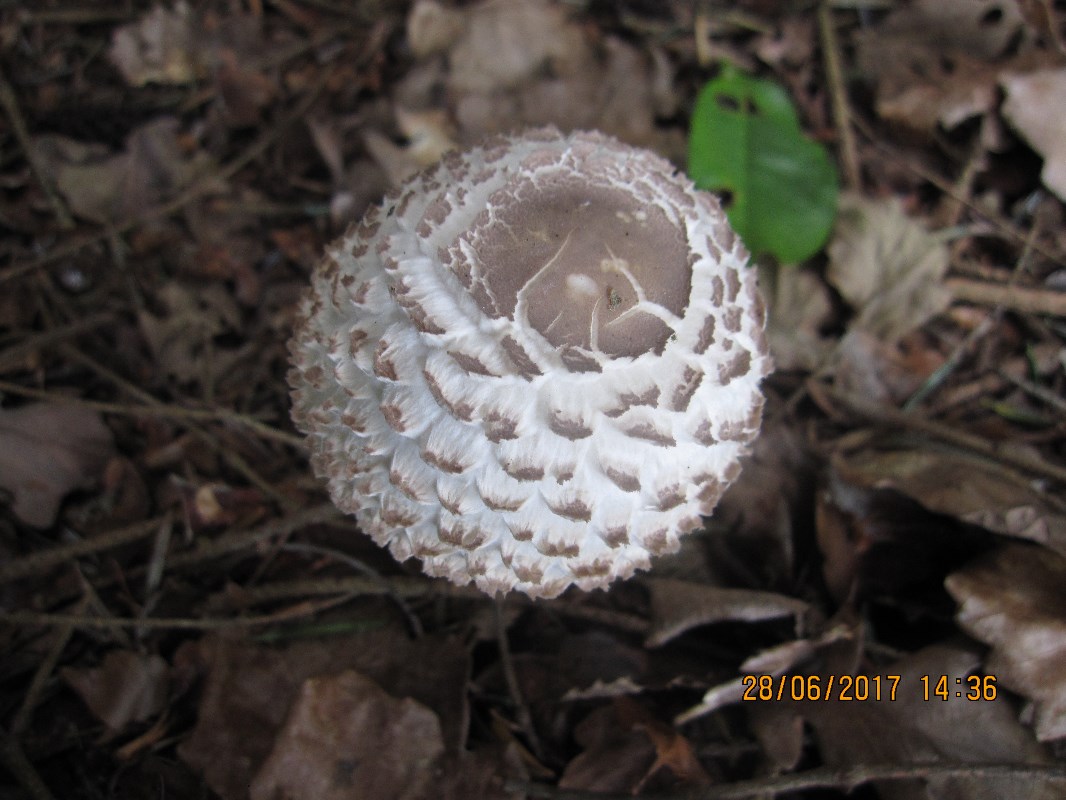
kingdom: Fungi
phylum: Basidiomycota
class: Agaricomycetes
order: Agaricales
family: Agaricaceae
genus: Leucoagaricus
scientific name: Leucoagaricus nympharum
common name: gran-silkehat
